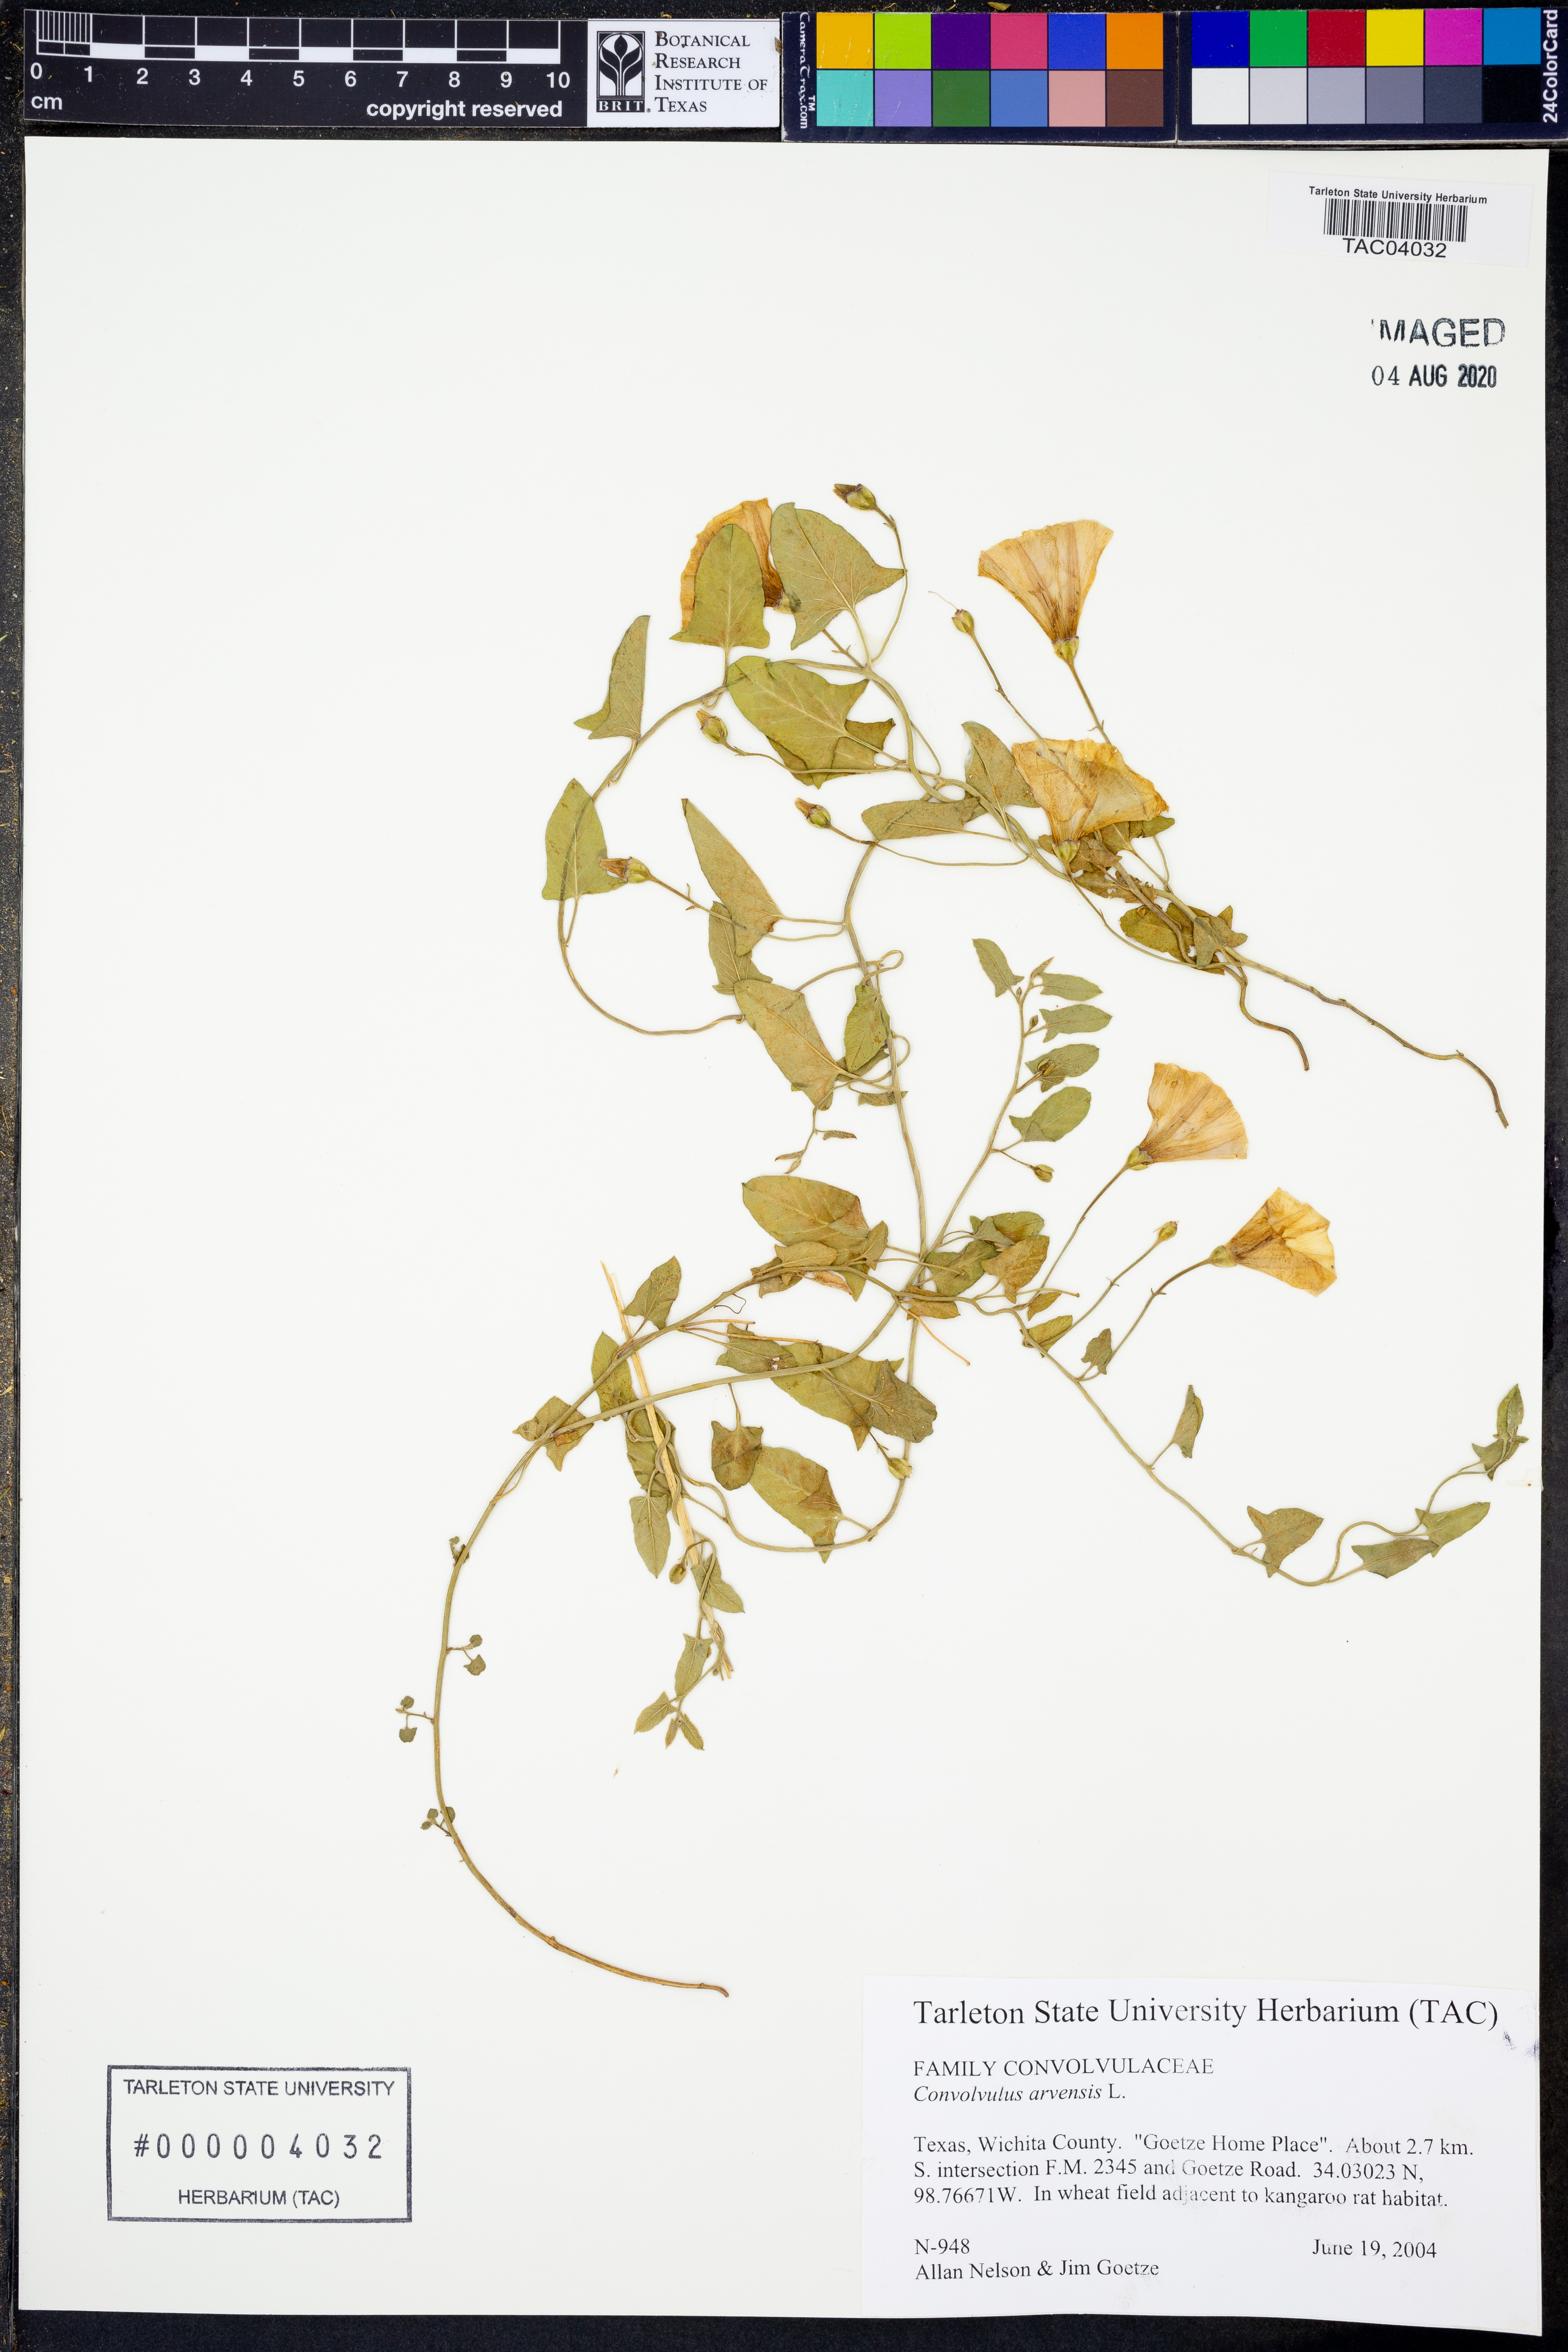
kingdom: Plantae
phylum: Tracheophyta
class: Magnoliopsida
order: Solanales
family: Convolvulaceae
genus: Convolvulus
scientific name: Convolvulus arvensis
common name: Field bindweed
